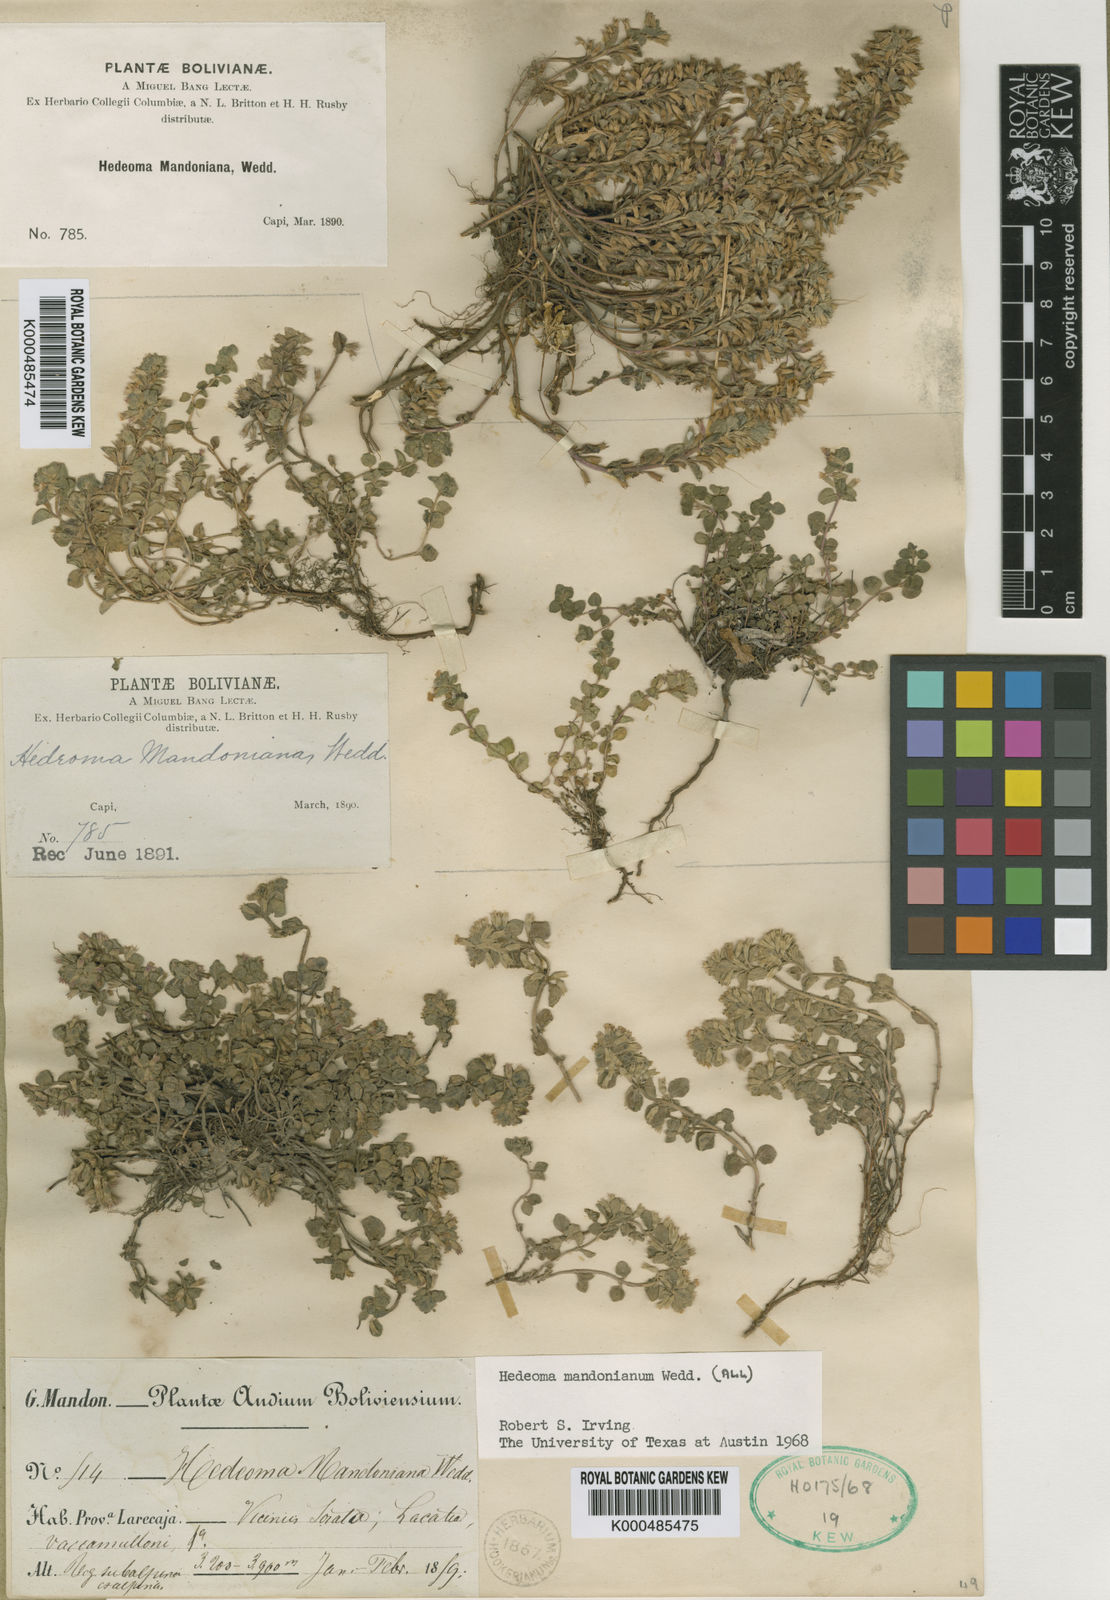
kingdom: Plantae
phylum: Tracheophyta
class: Magnoliopsida
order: Lamiales
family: Lamiaceae
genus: Hedeoma
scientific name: Hedeoma mandoniana
